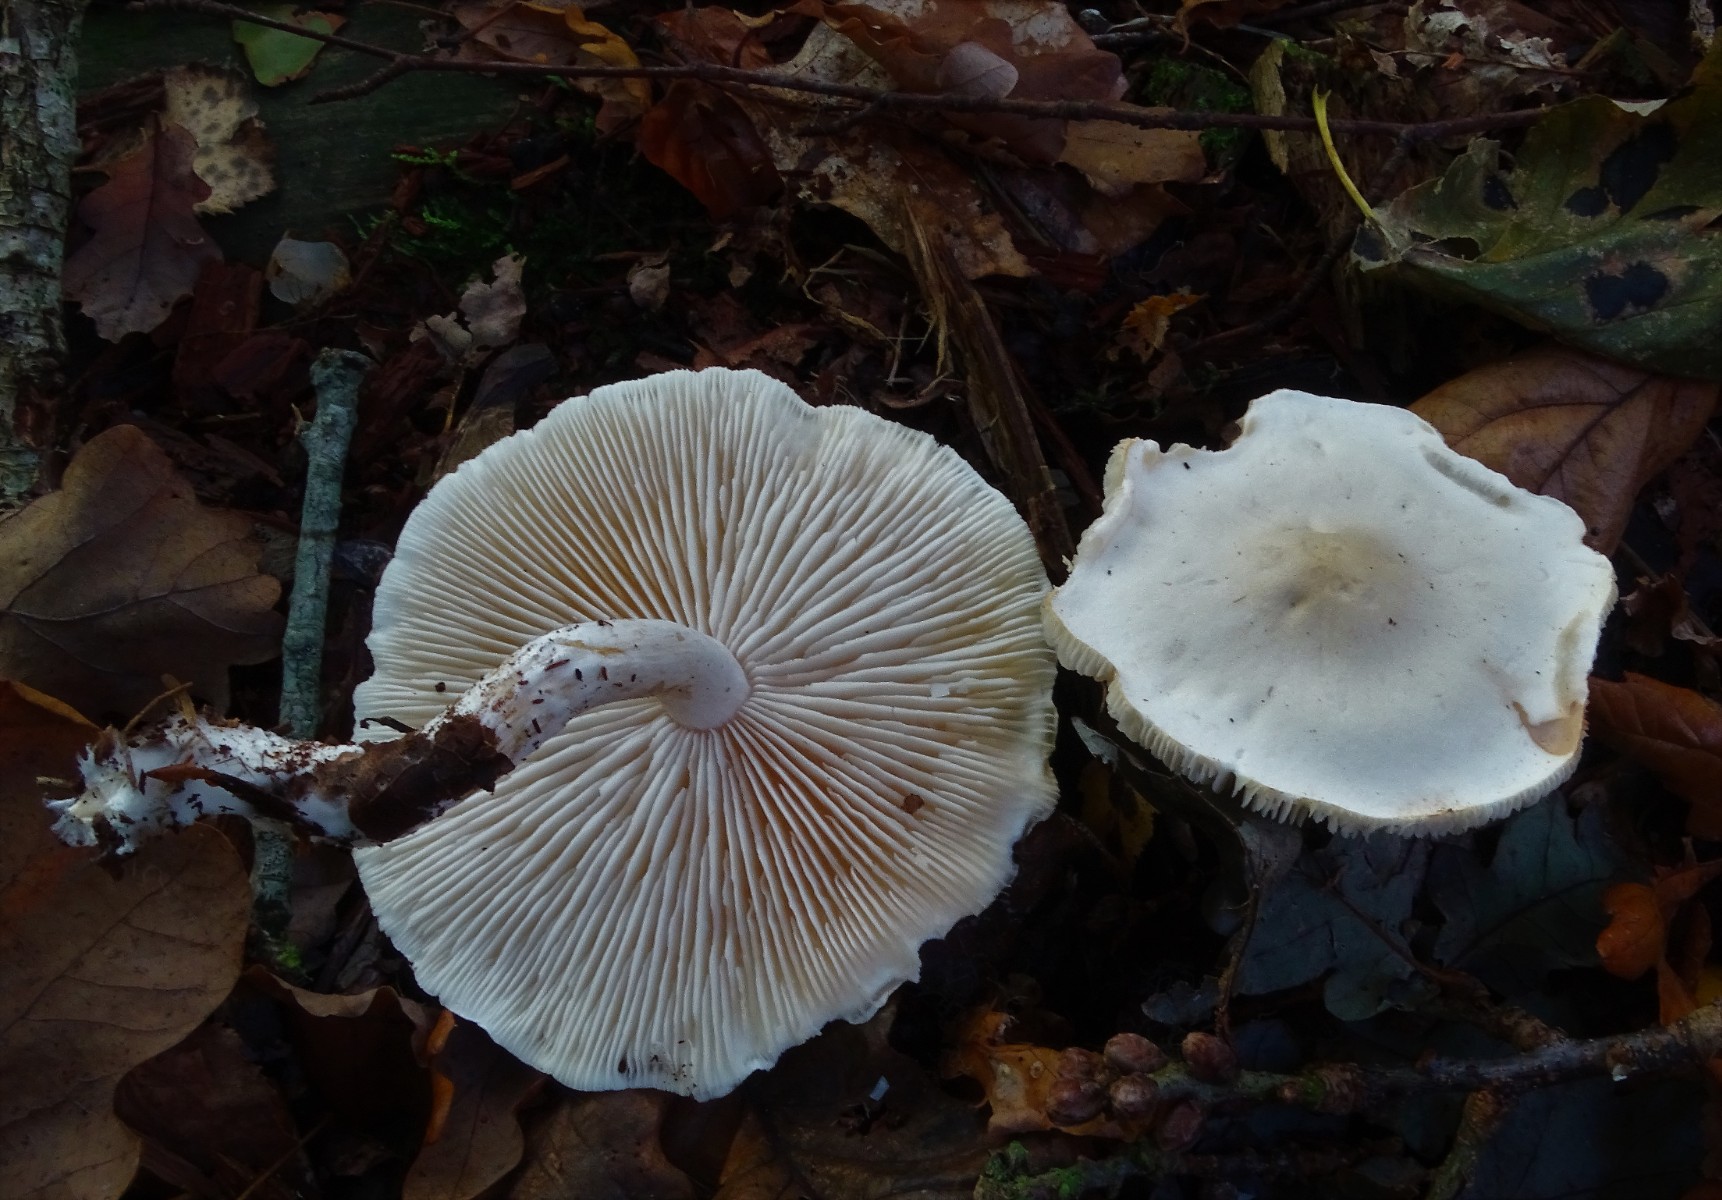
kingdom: Fungi
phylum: Basidiomycota
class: Agaricomycetes
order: Agaricales
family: Tricholomataceae
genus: Tricholoma
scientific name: Tricholoma album
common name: honning-ridderhat
